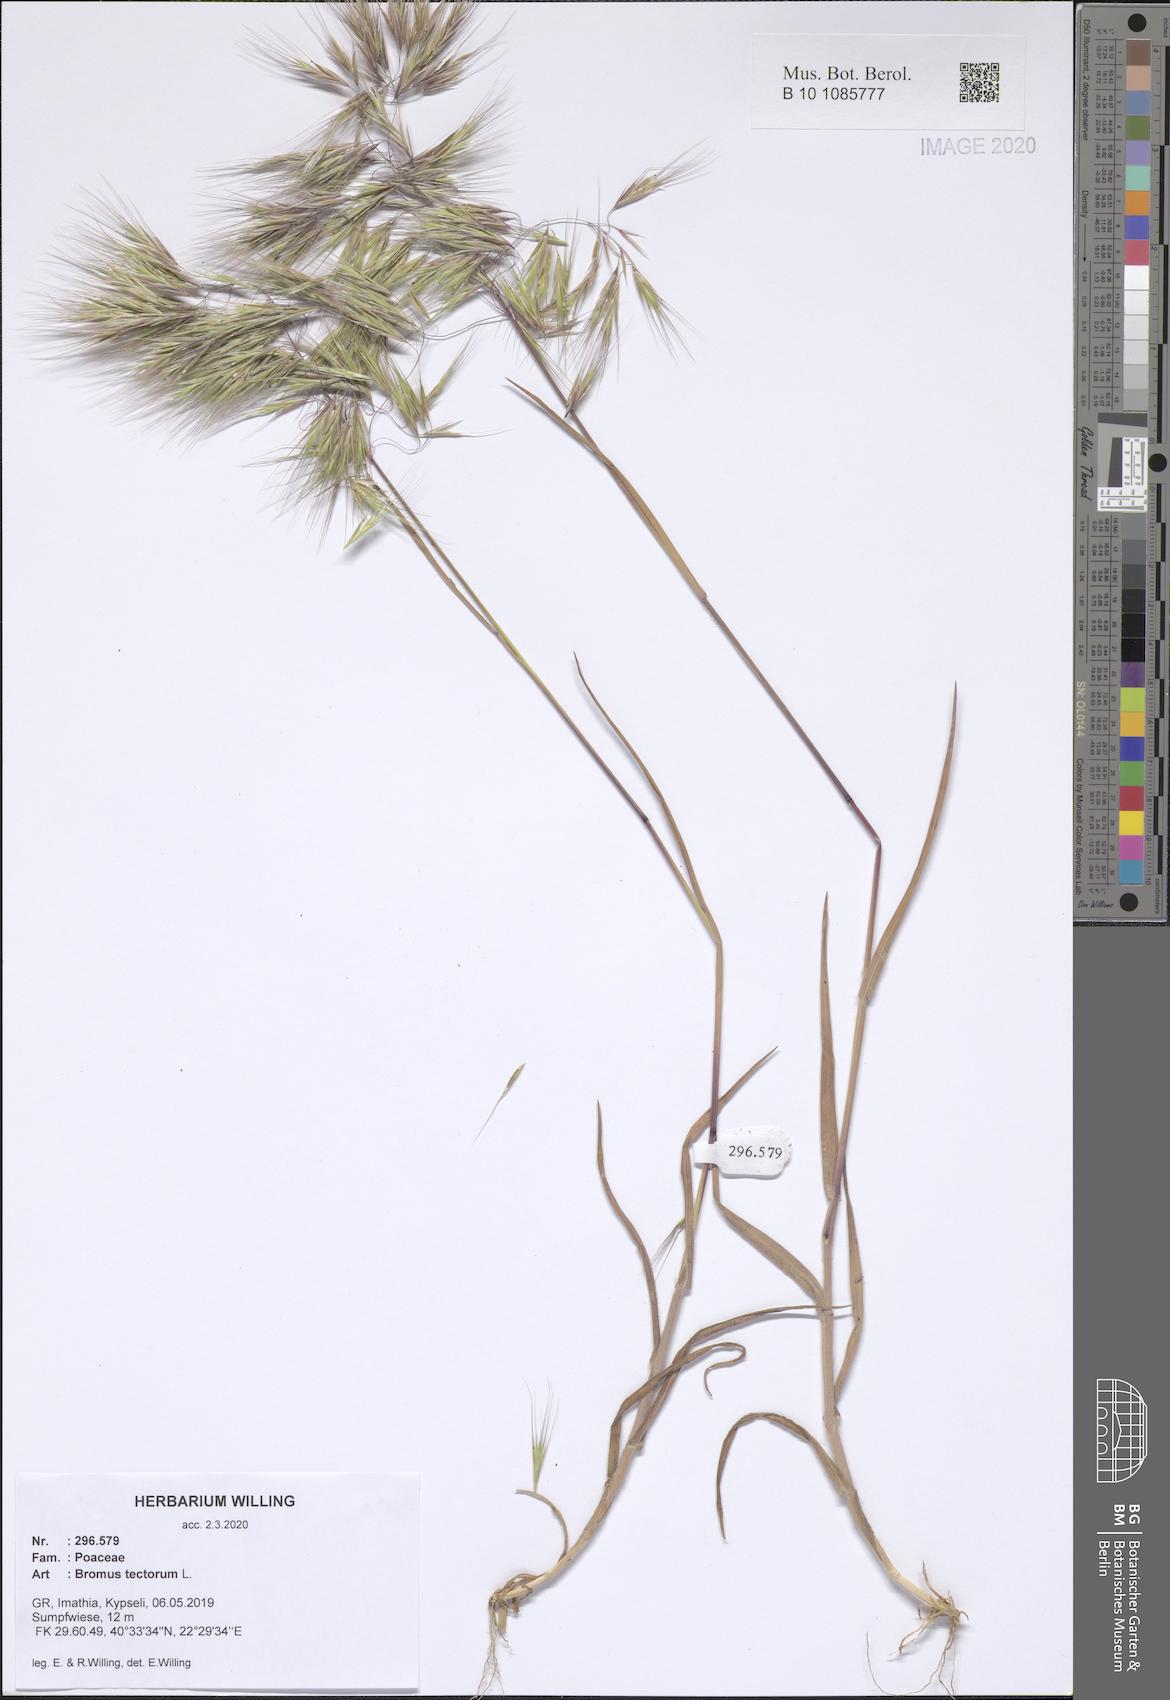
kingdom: Plantae
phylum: Tracheophyta
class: Liliopsida
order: Poales
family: Poaceae
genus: Bromus
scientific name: Bromus tectorum
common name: Cheatgrass
